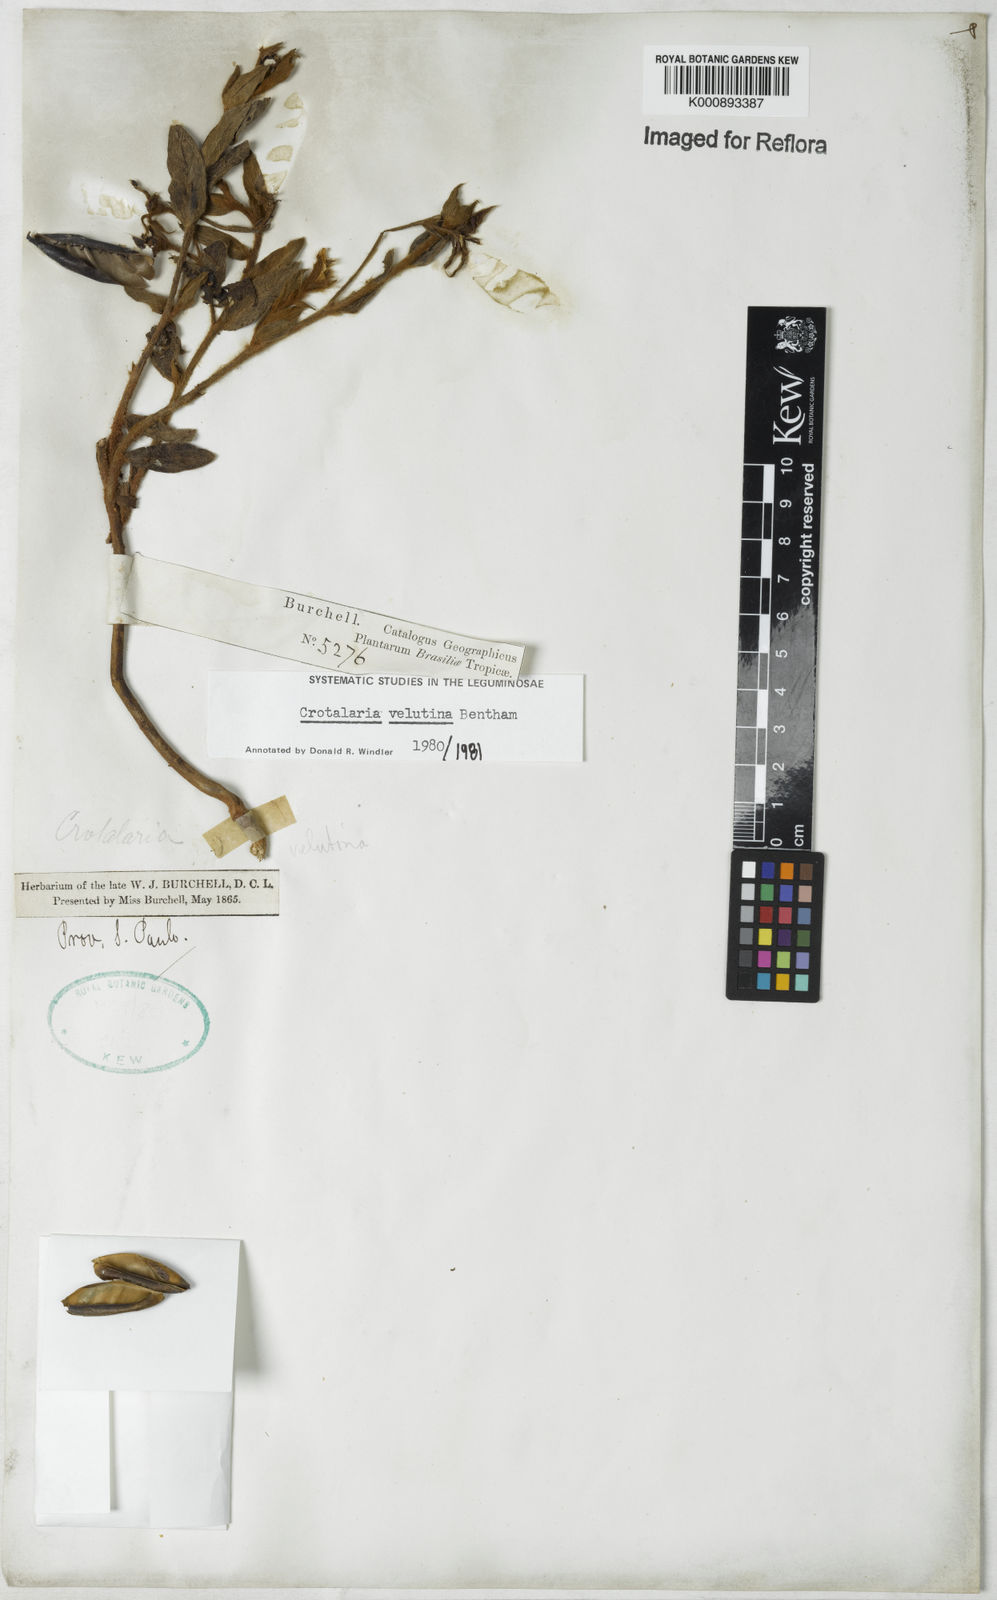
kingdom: Plantae
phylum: Tracheophyta
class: Magnoliopsida
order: Fabales
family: Fabaceae
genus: Crotalaria
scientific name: Crotalaria velutina
